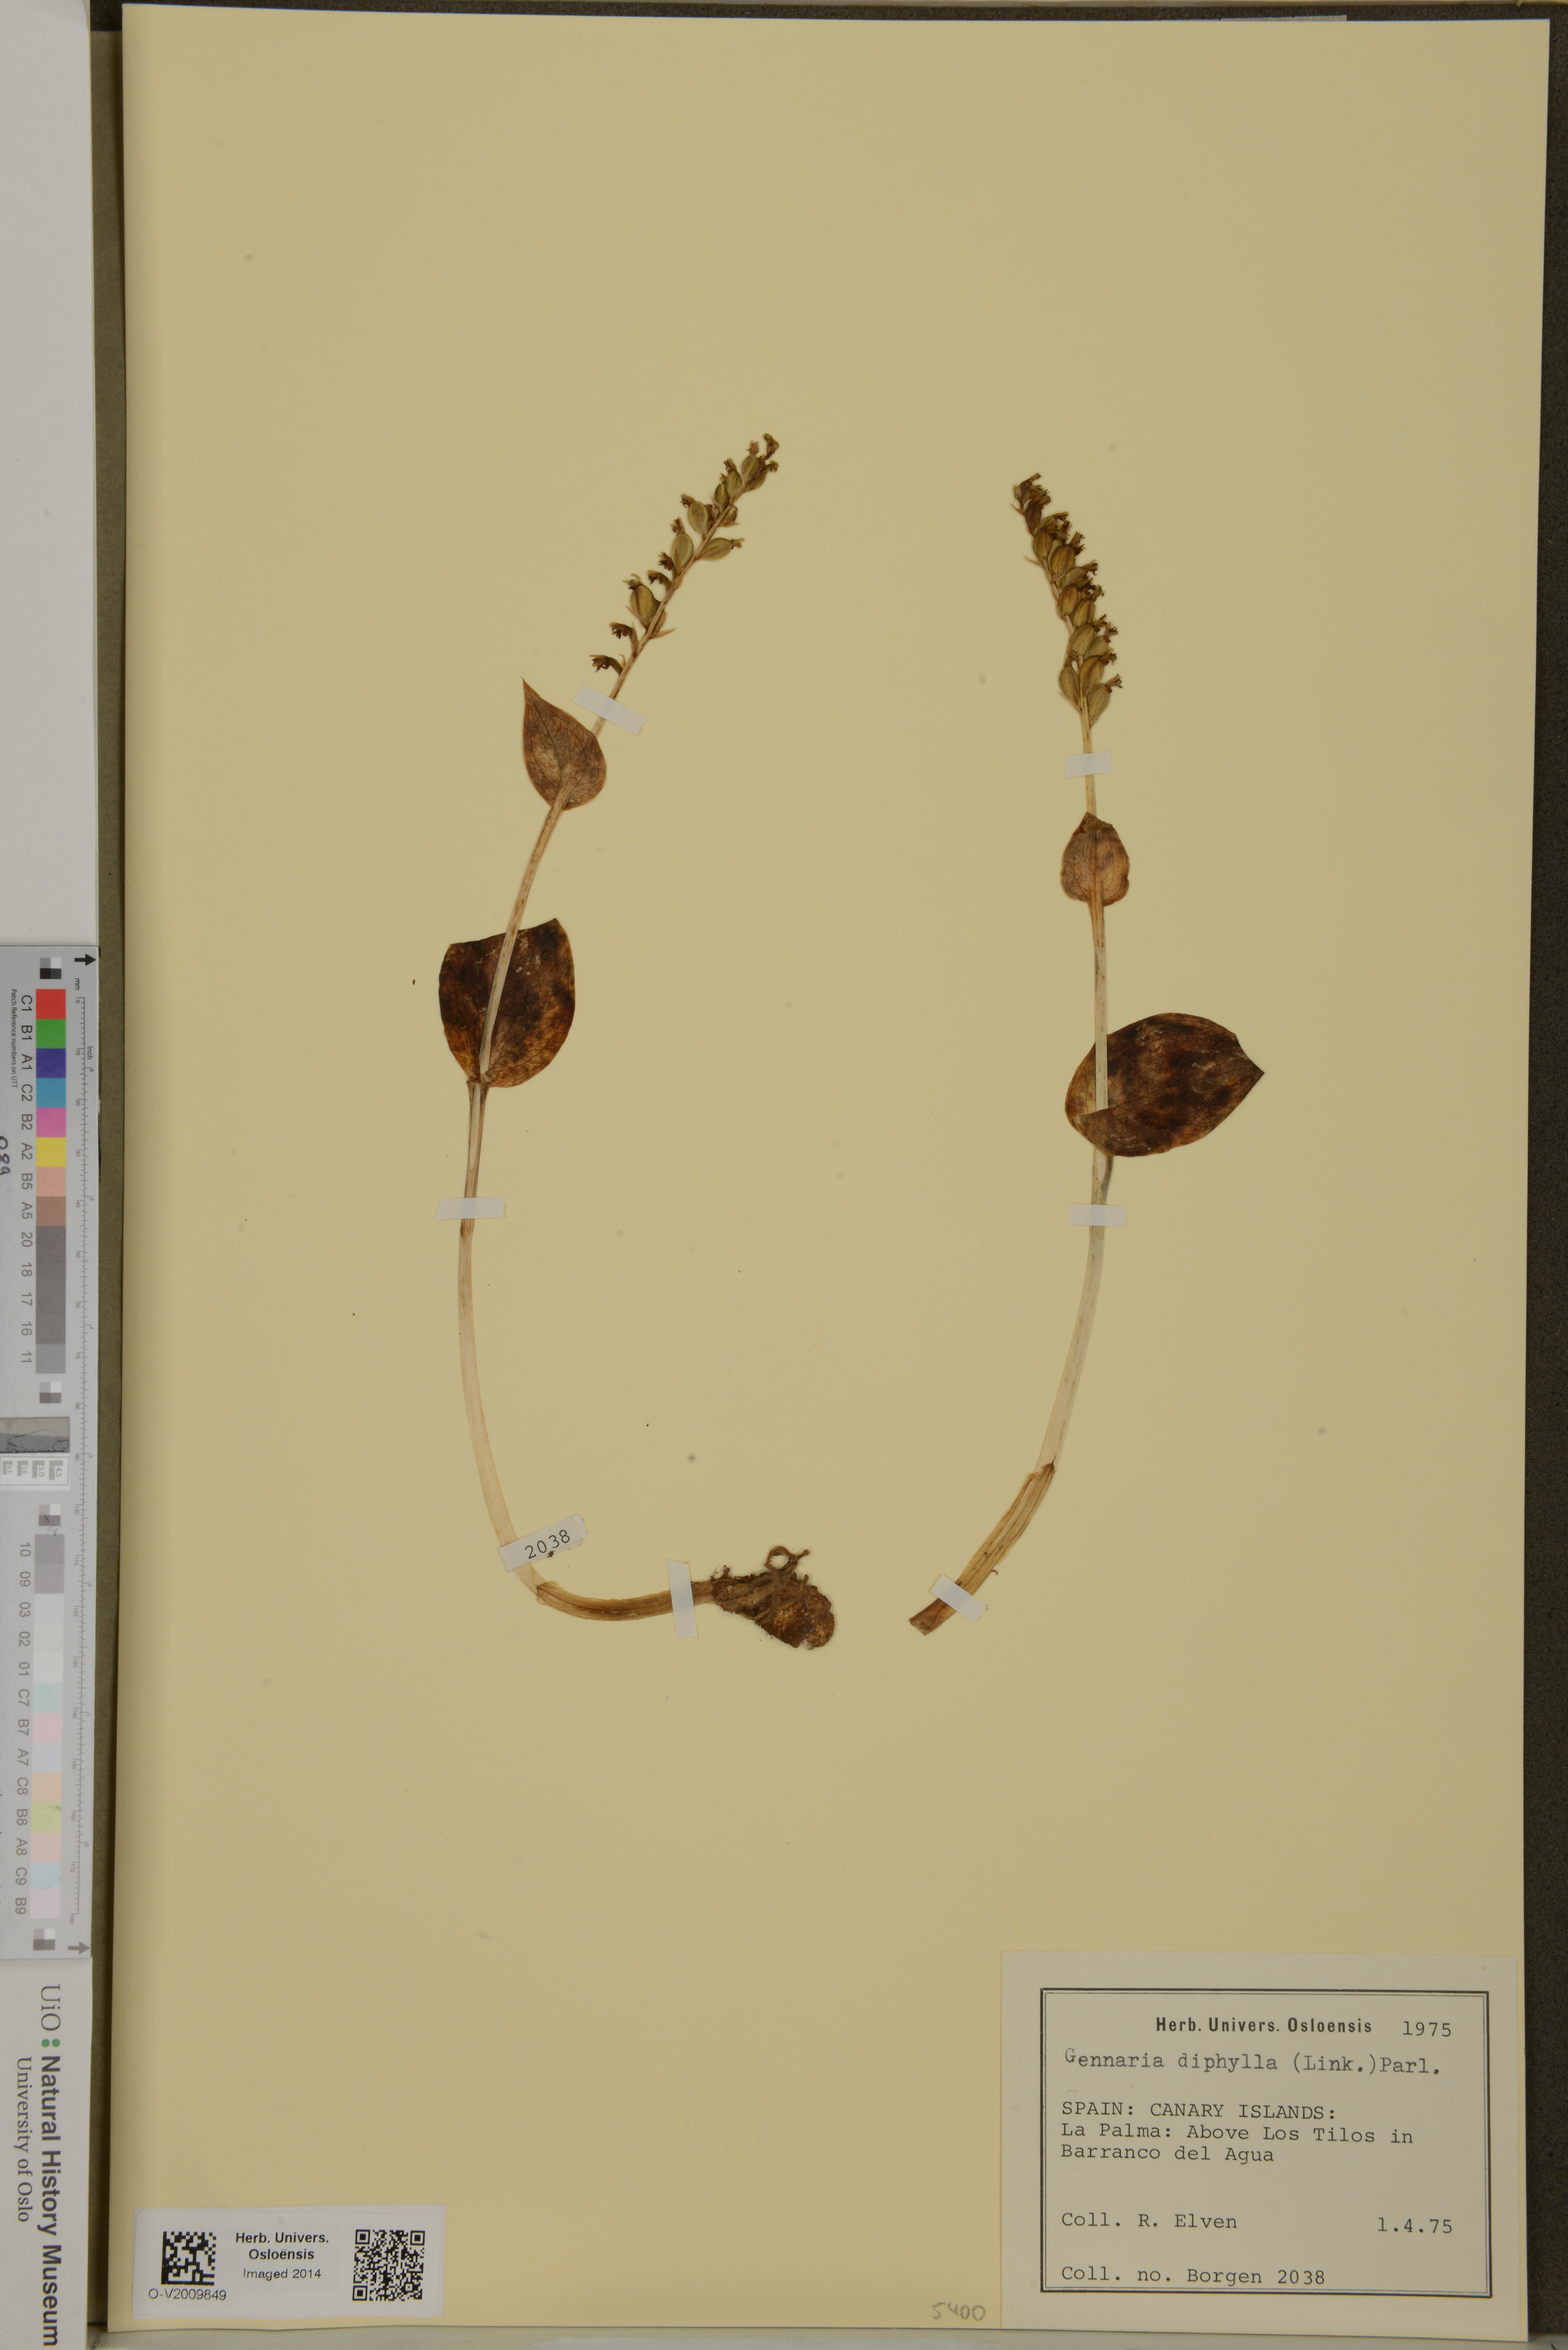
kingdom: Plantae
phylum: Tracheophyta
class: Liliopsida
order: Asparagales
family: Orchidaceae
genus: Gennaria
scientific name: Gennaria diphylla
